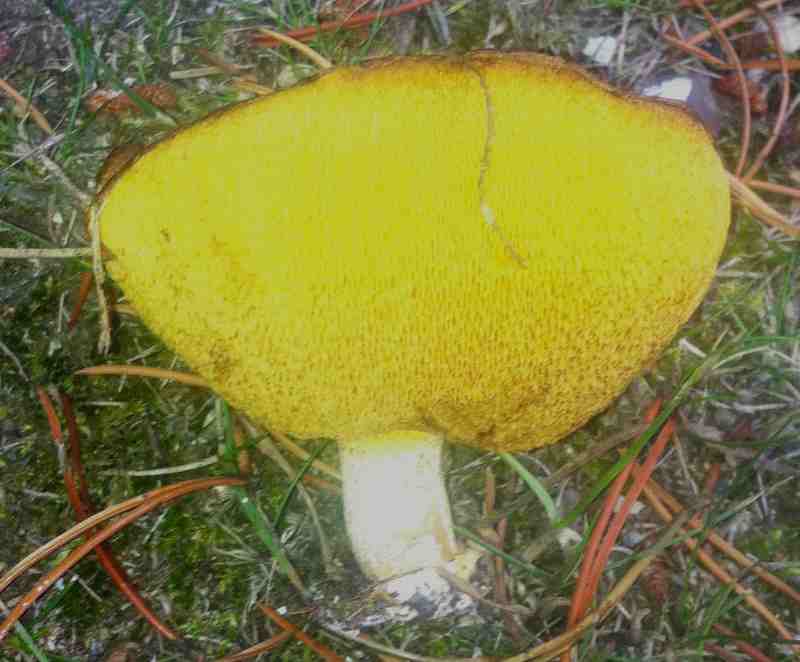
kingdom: Fungi
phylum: Basidiomycota
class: Agaricomycetes
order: Boletales
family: Suillaceae
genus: Suillus
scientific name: Suillus granulatus
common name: kornet slimrørhat
